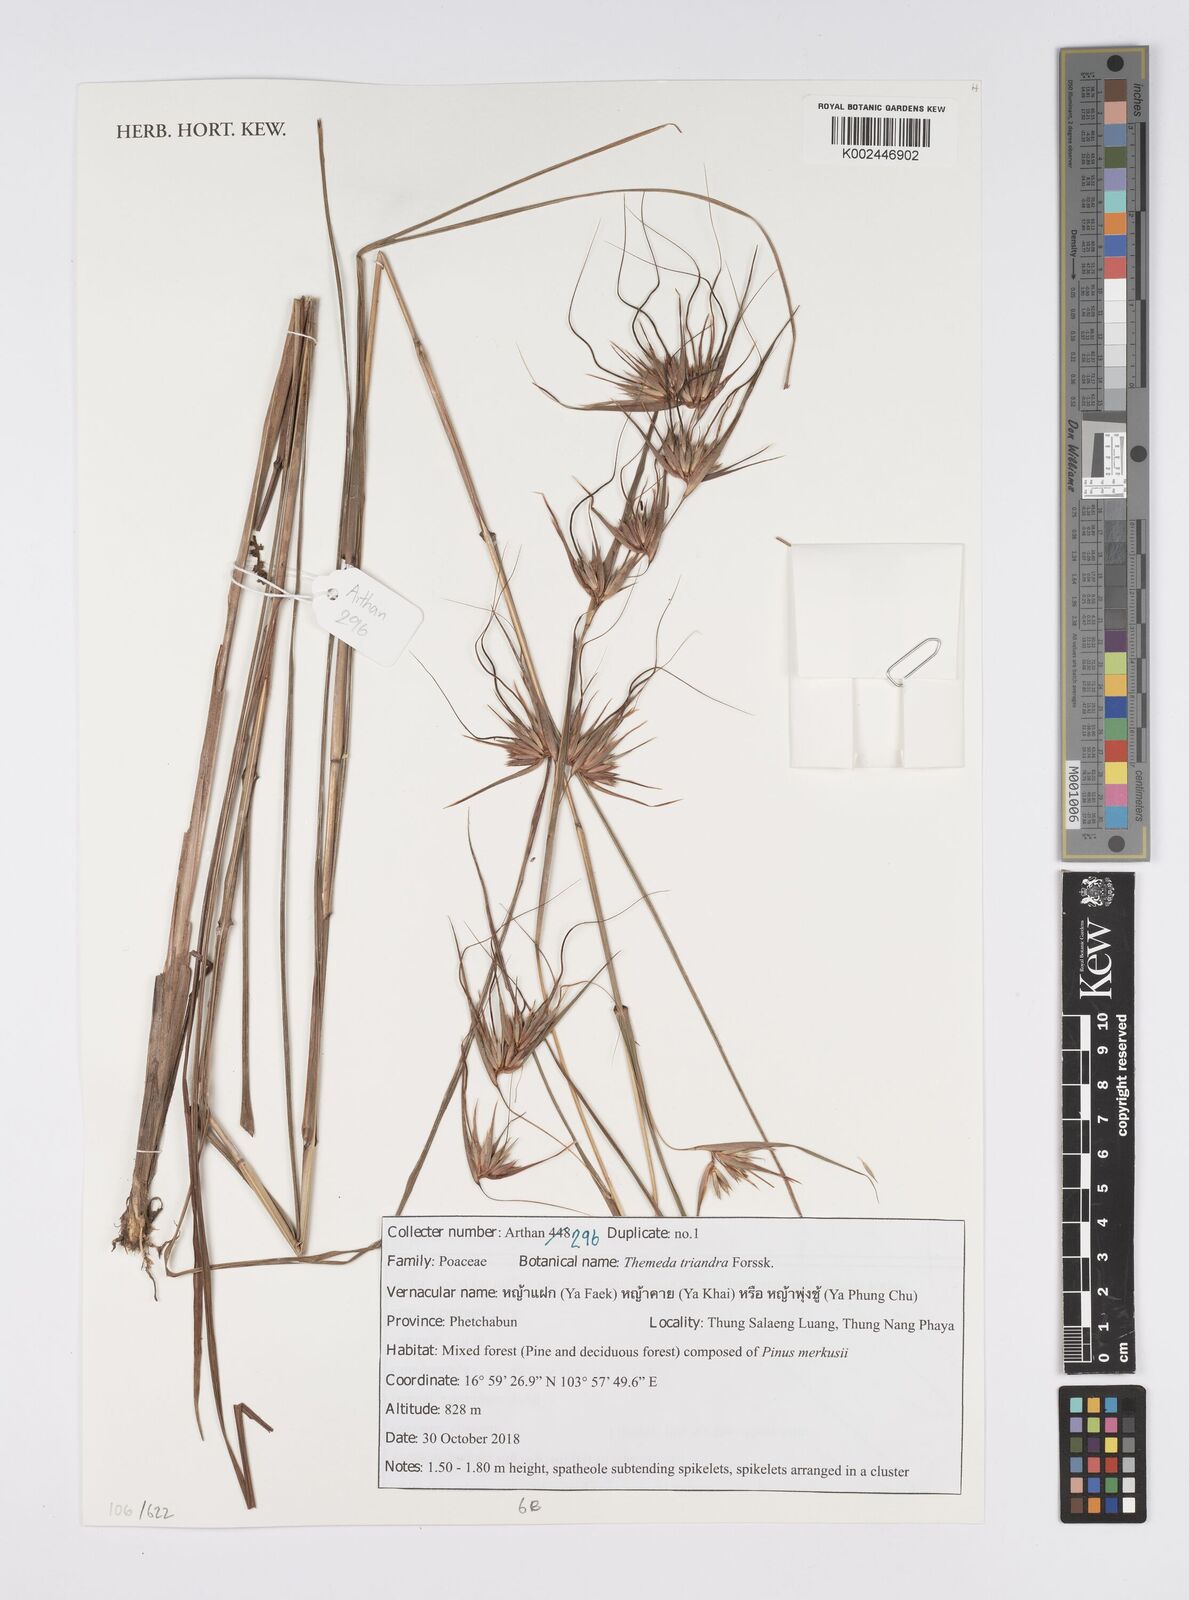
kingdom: Plantae
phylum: Tracheophyta
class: Liliopsida
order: Poales
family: Poaceae
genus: Themeda
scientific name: Themeda triandra
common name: Kangaroo grass
